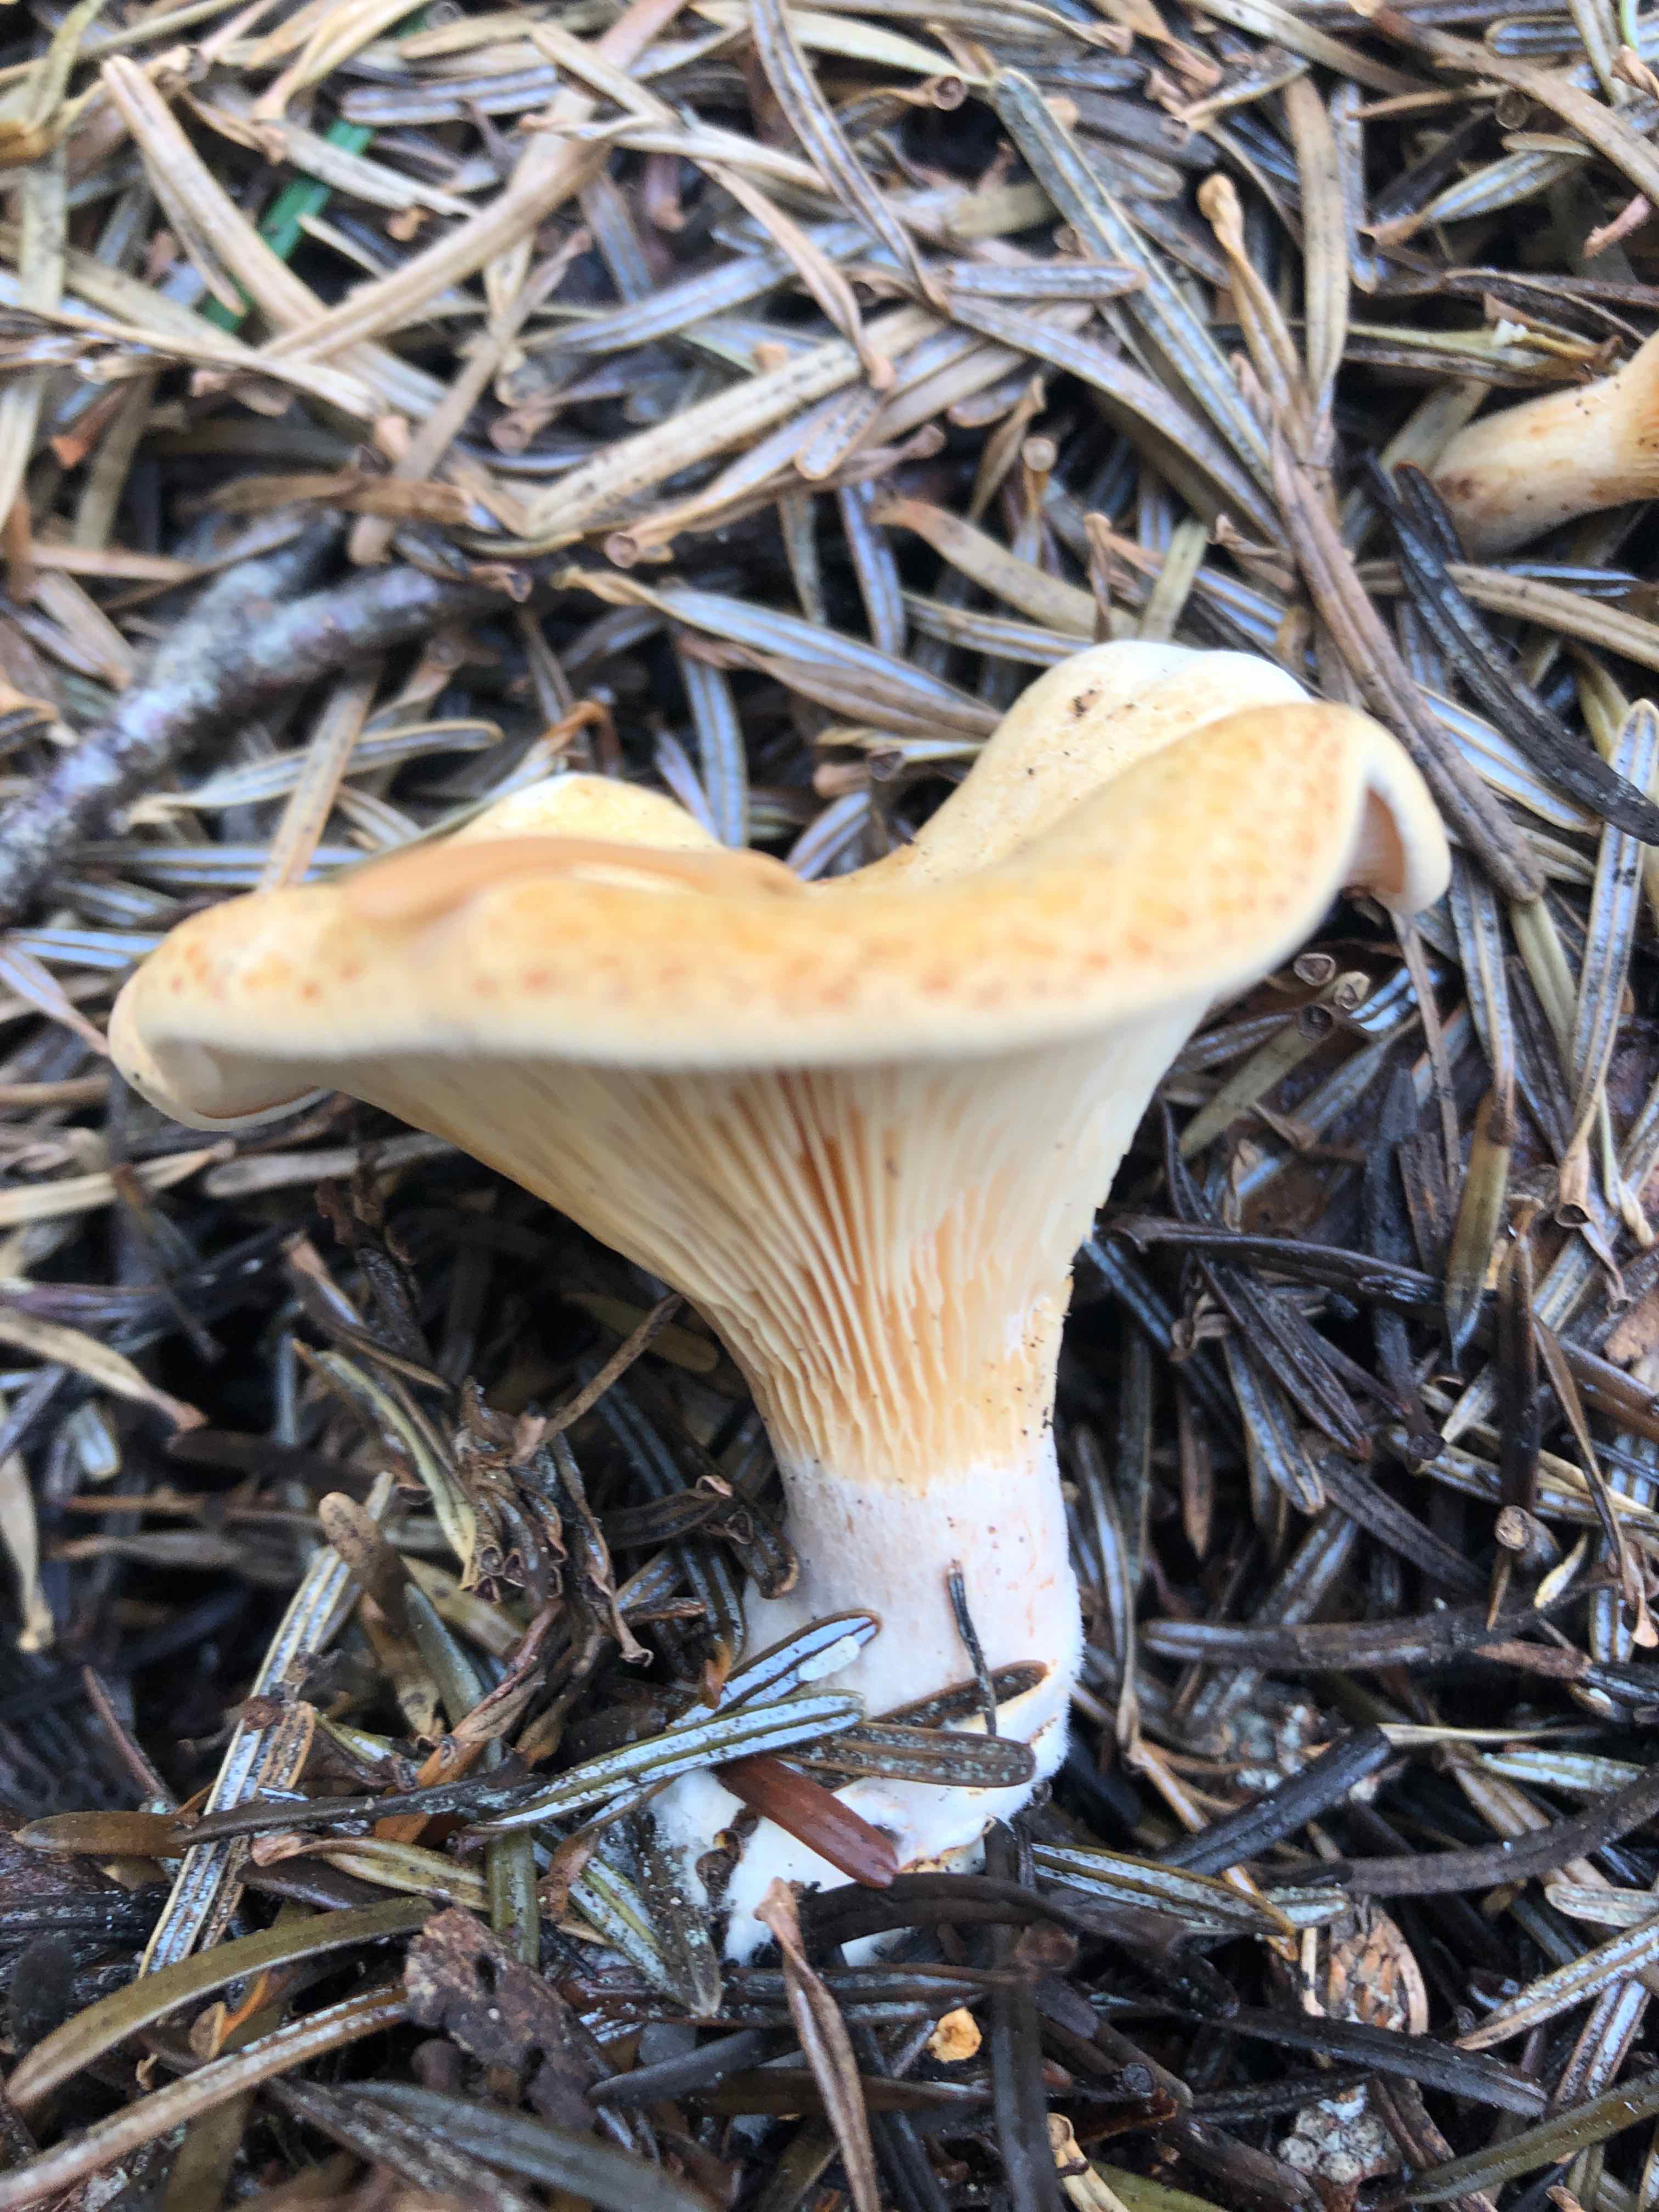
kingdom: Fungi
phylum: Basidiomycota
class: Agaricomycetes
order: Agaricales
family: Tricholomataceae
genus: Paralepista
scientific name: Paralepista gilva
